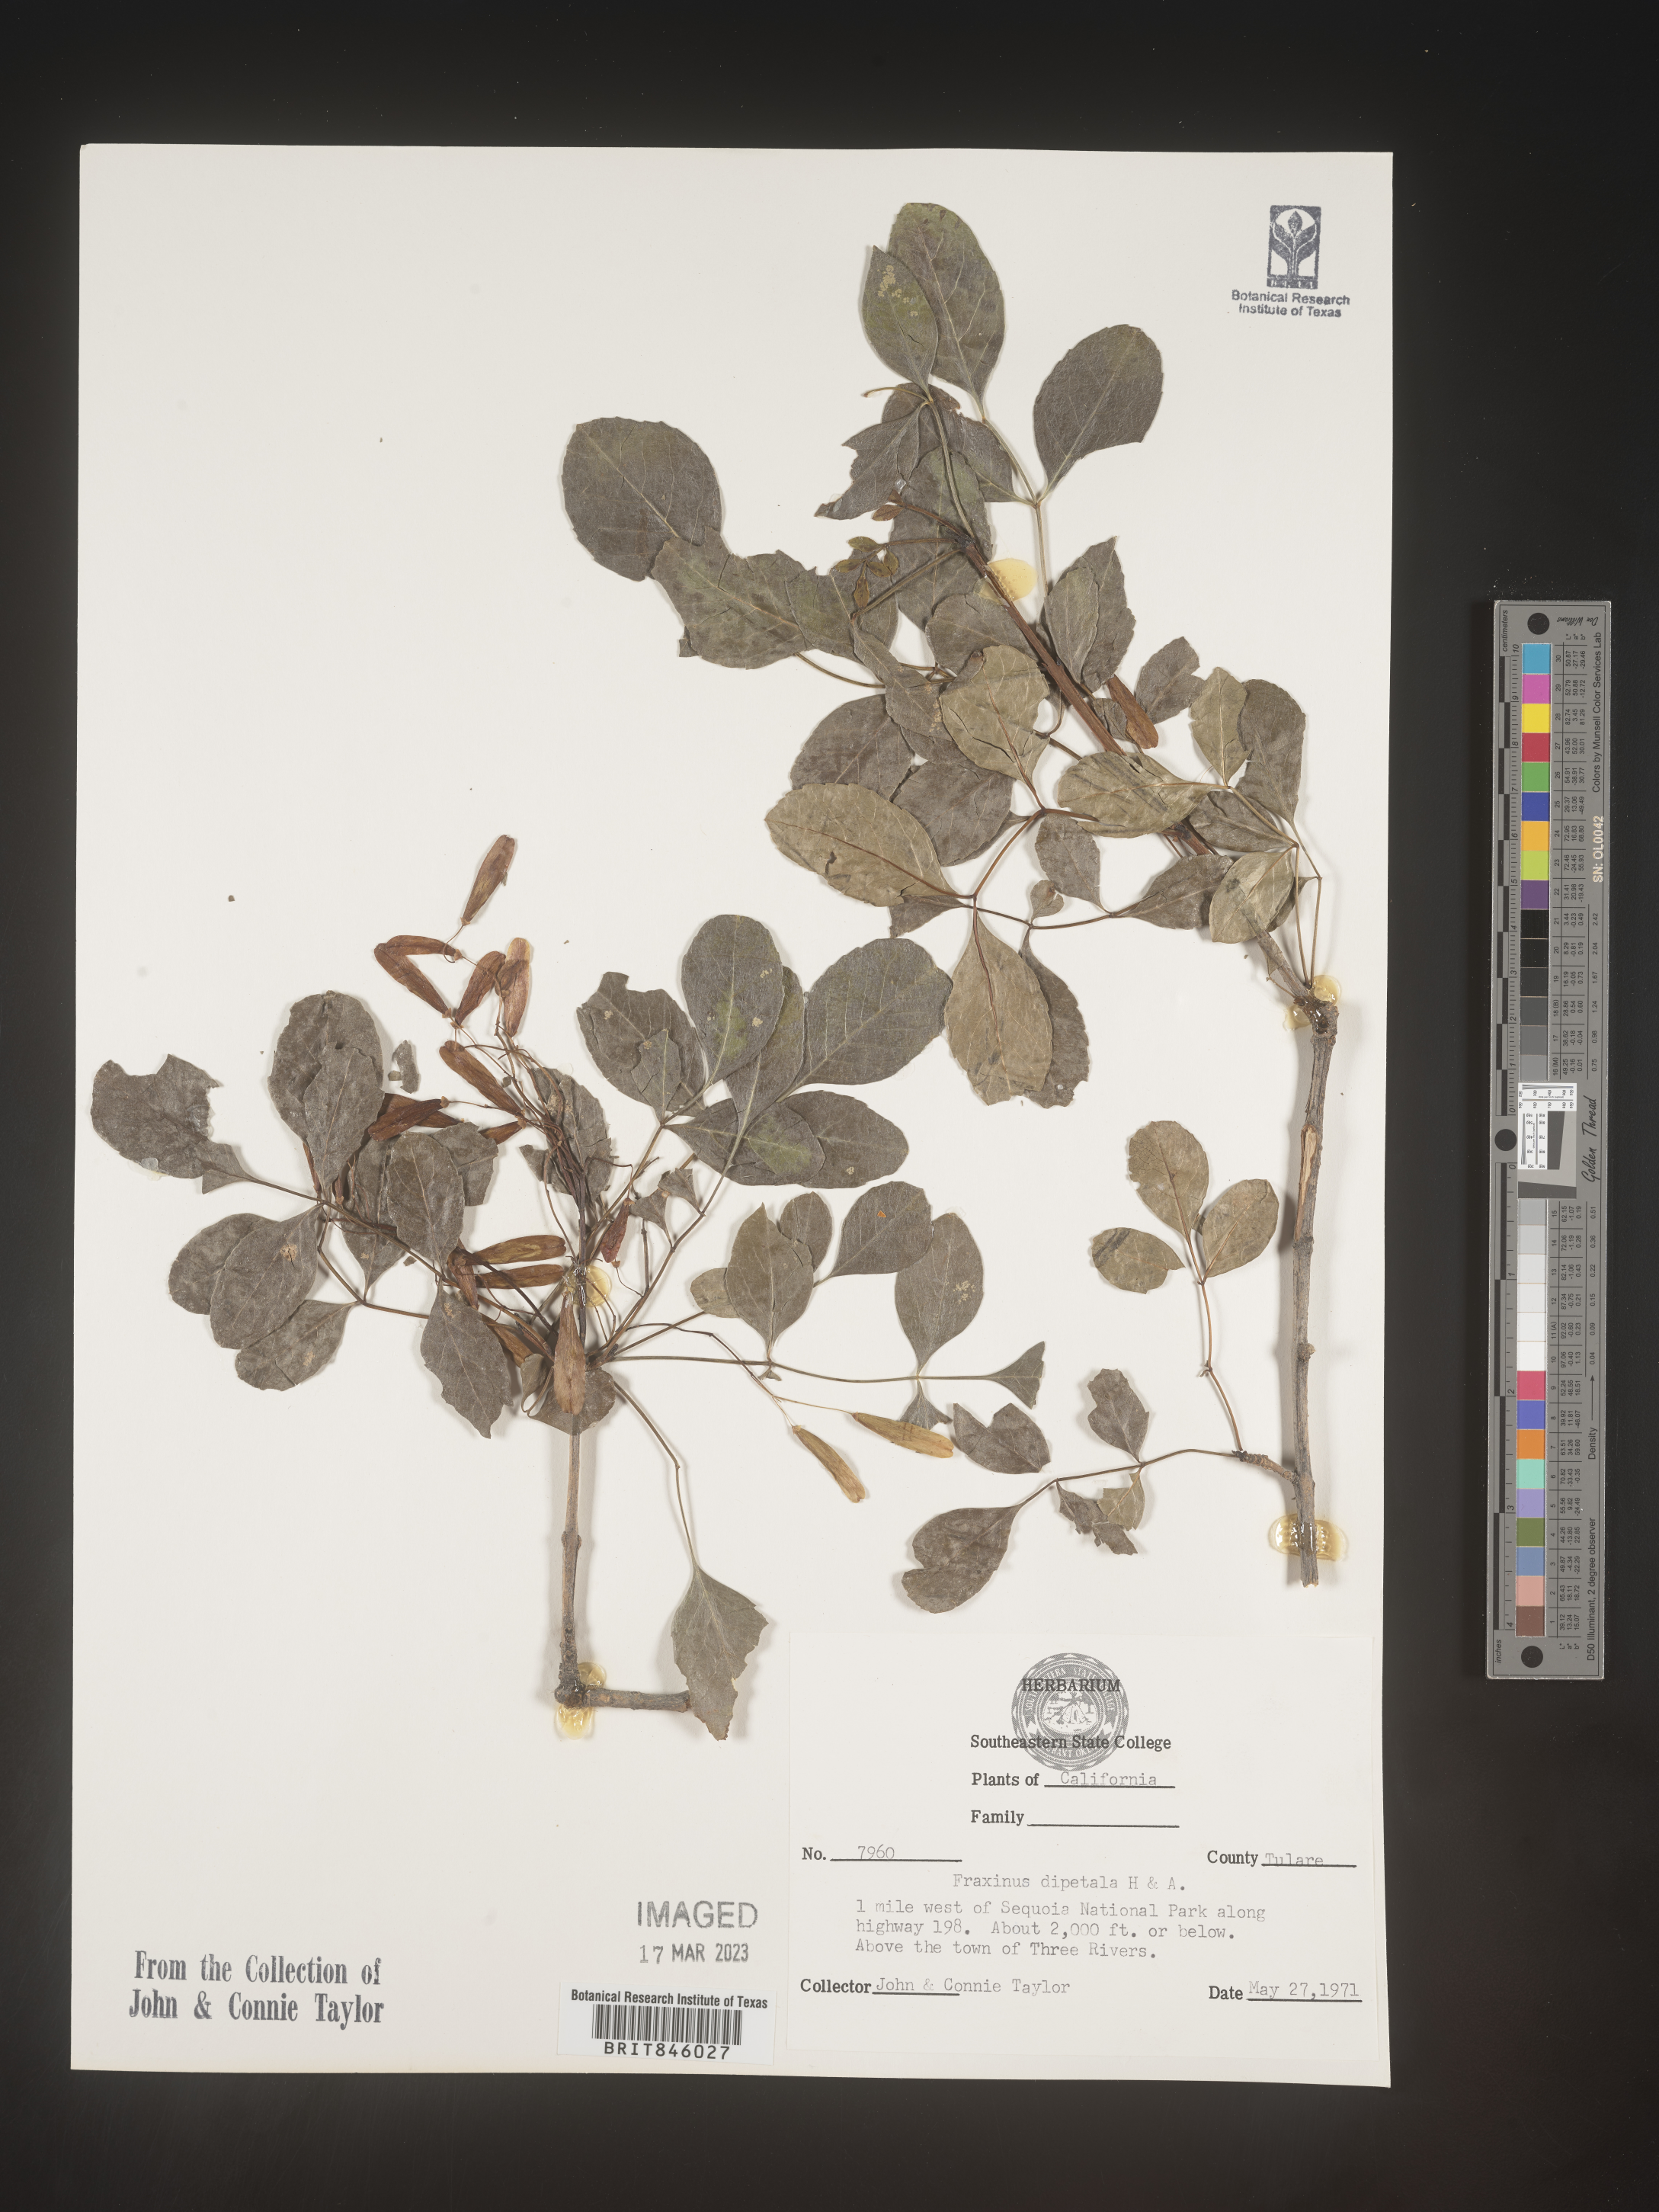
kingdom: Plantae
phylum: Tracheophyta
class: Magnoliopsida
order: Lamiales
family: Oleaceae
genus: Fraxinus
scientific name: Fraxinus dipetala
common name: California ash
